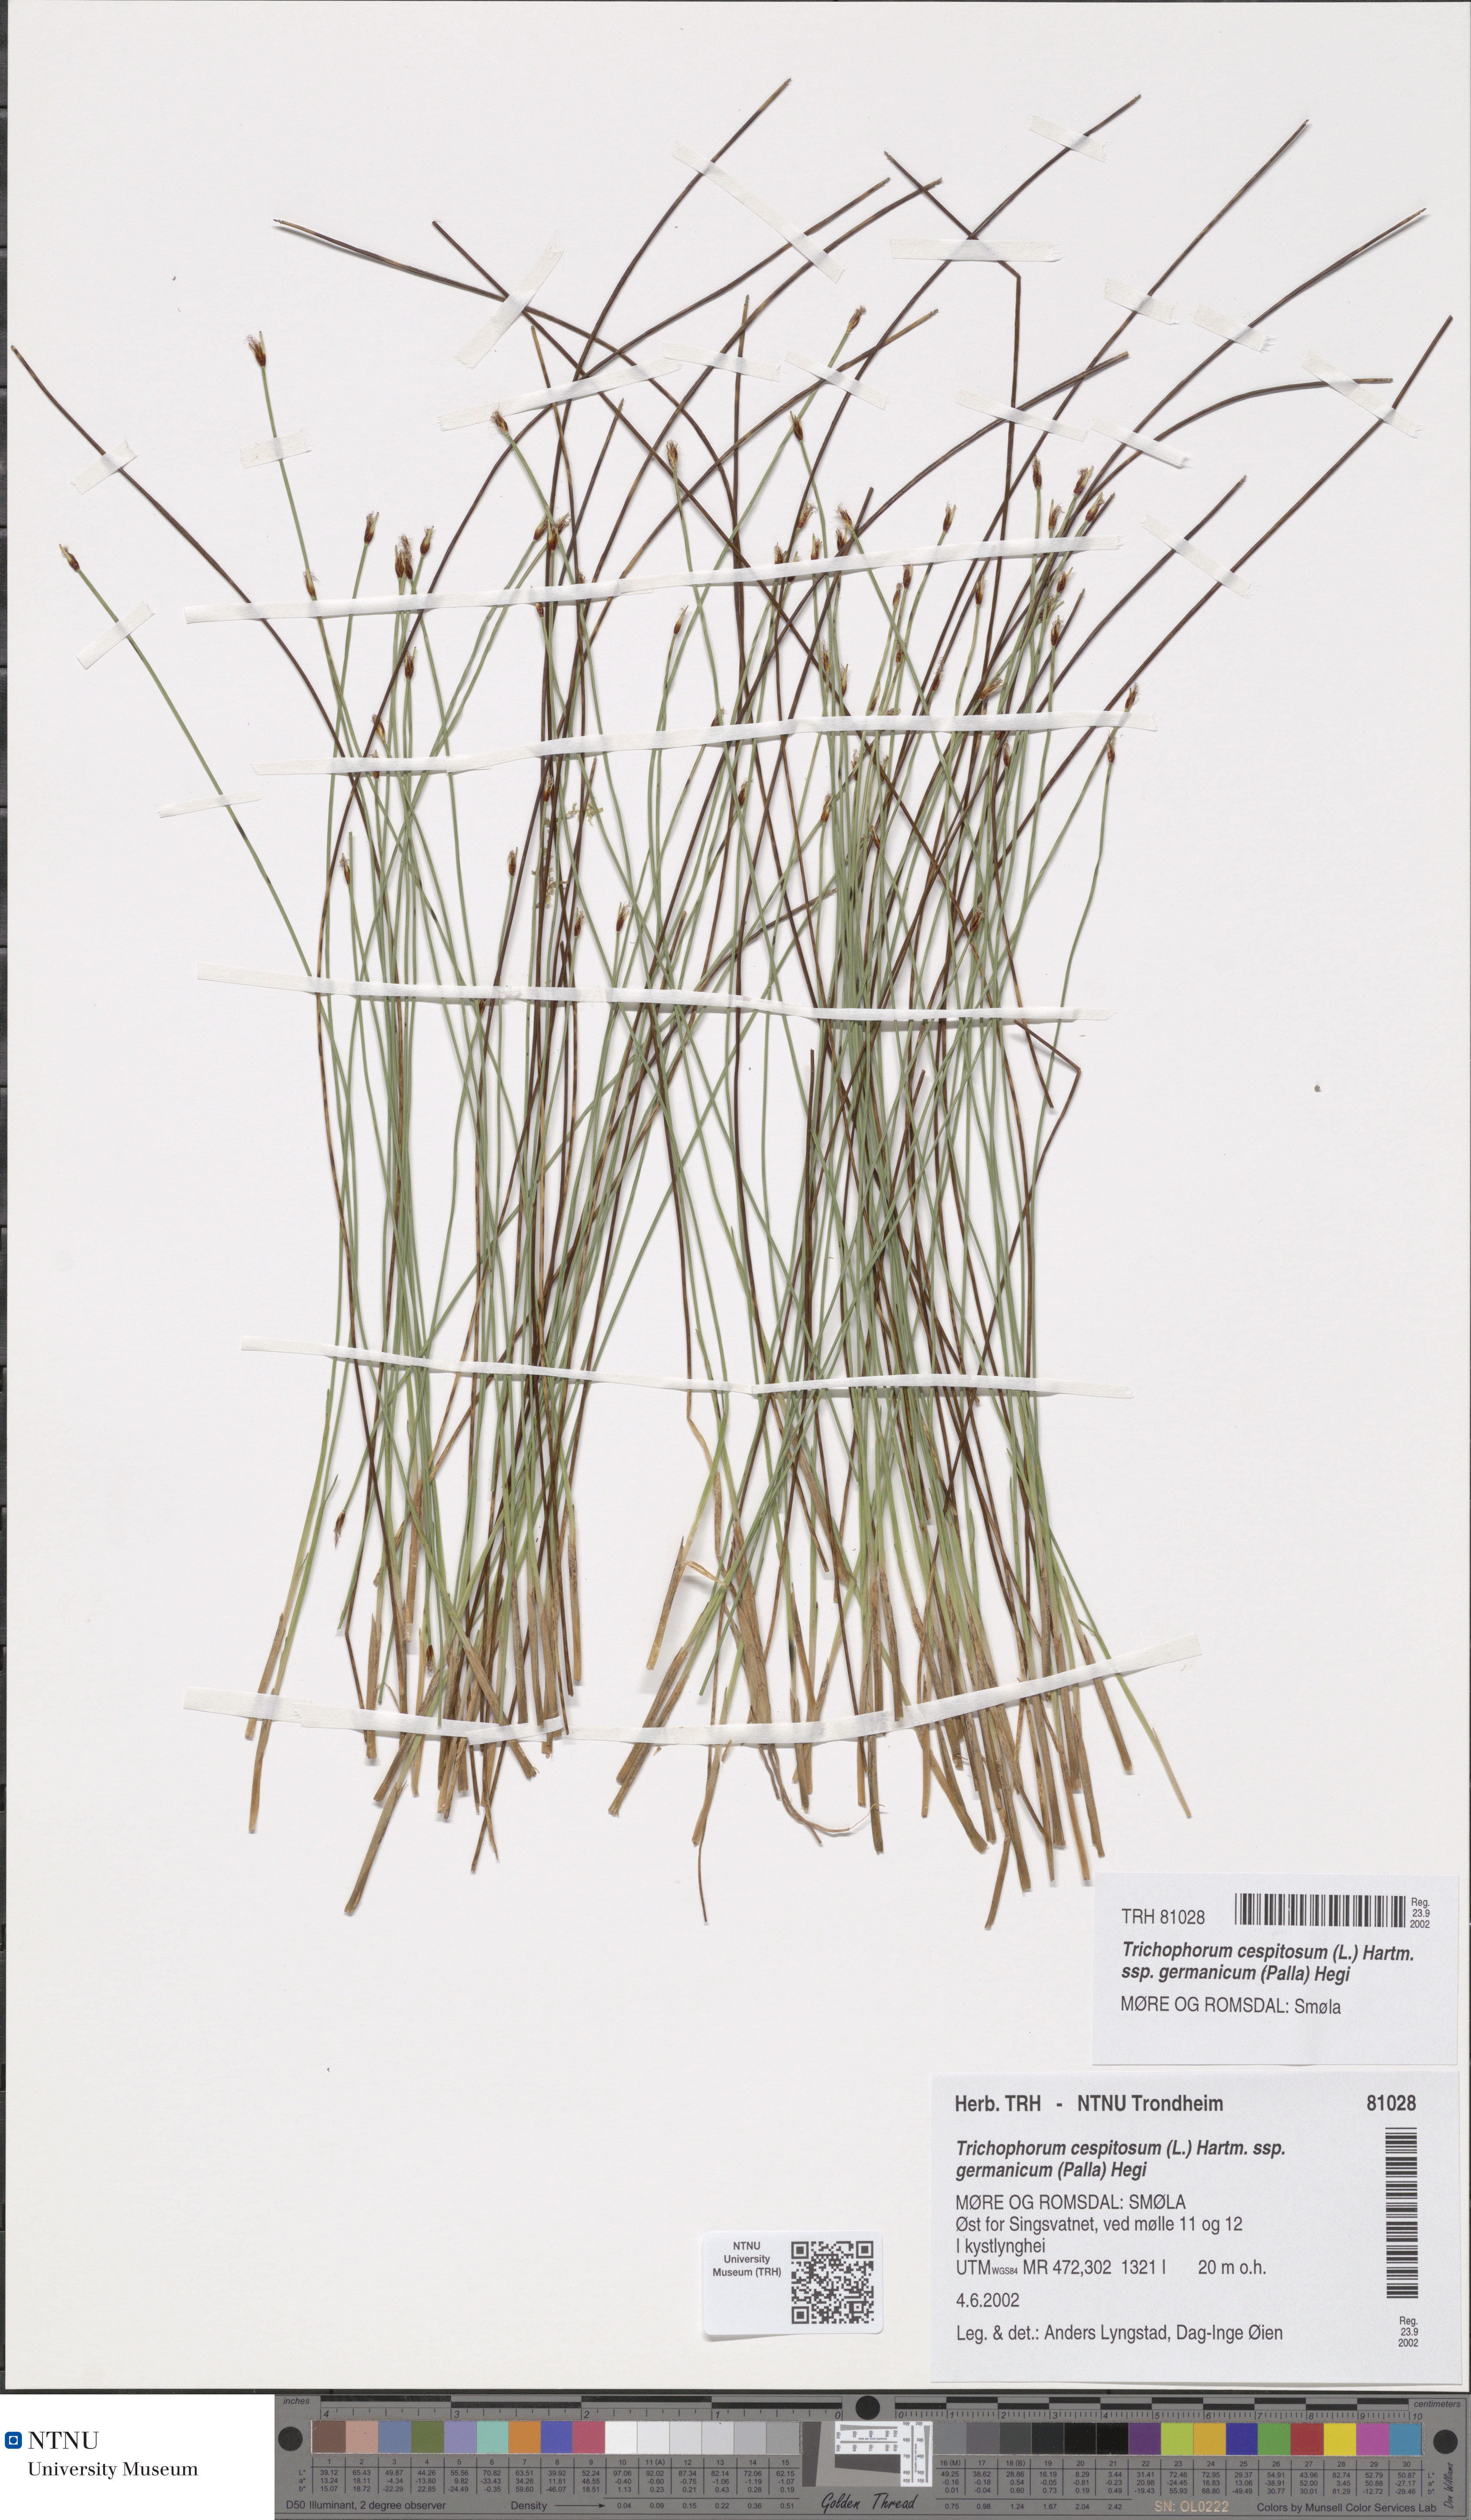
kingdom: Plantae
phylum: Tracheophyta
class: Liliopsida
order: Poales
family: Cyperaceae
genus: Trichophorum
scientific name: Trichophorum cespitosum
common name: Cespitose bulrush
